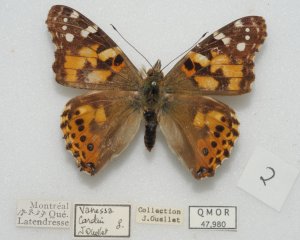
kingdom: Animalia
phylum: Arthropoda
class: Insecta
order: Lepidoptera
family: Nymphalidae
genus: Vanessa
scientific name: Vanessa cardui
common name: Painted Lady
